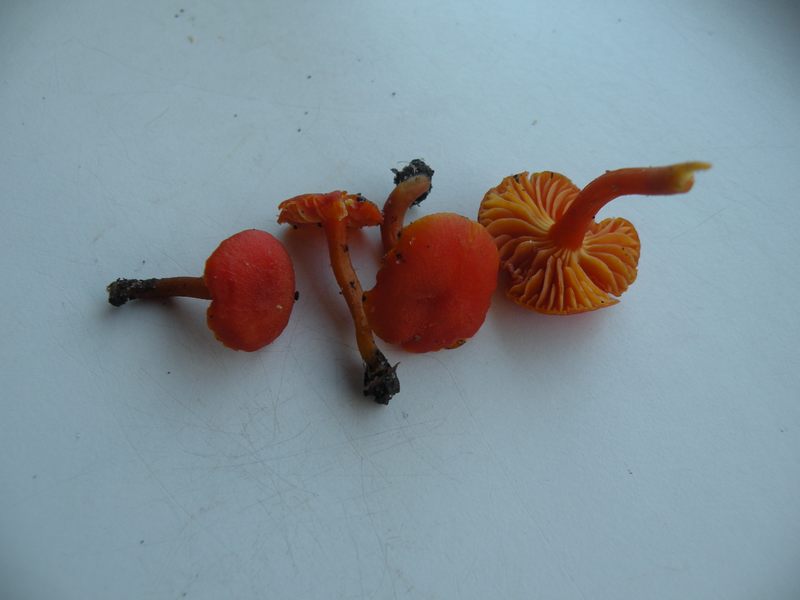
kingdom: Fungi
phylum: Basidiomycota
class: Agaricomycetes
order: Agaricales
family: Hygrophoraceae
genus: Hygrocybe
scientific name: Hygrocybe miniata
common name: mønje-vokshat
